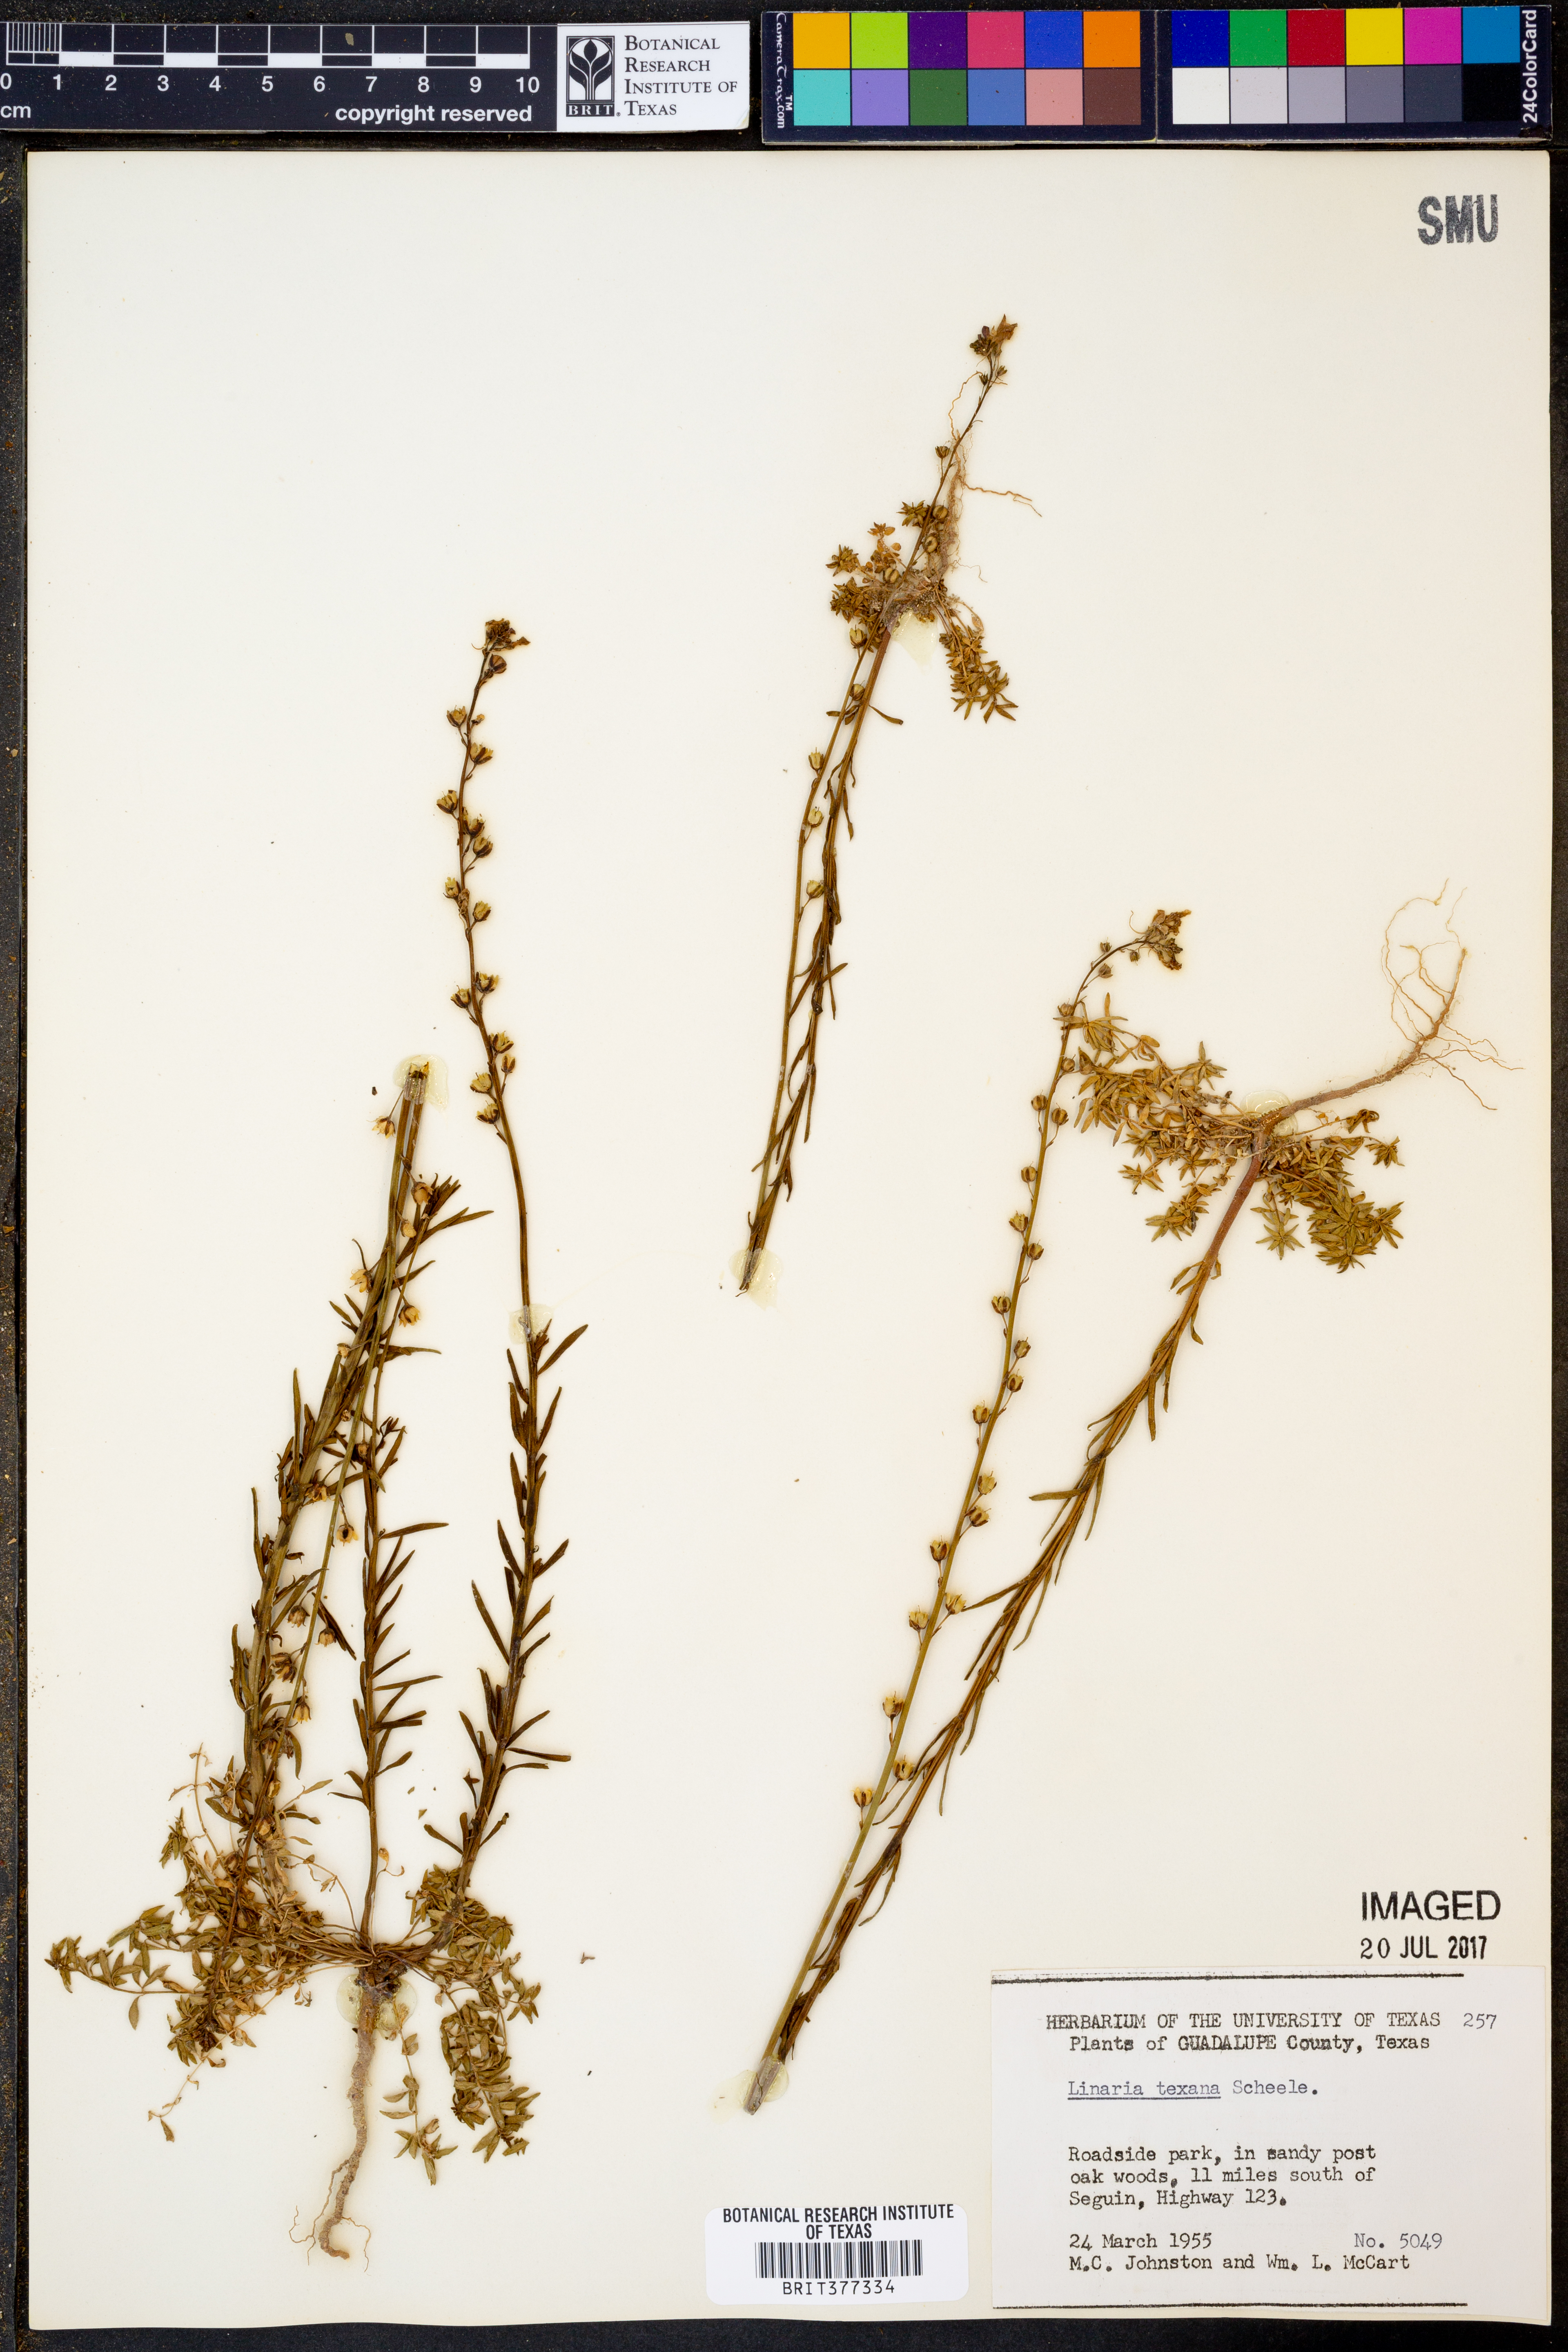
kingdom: Plantae
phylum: Tracheophyta
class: Magnoliopsida
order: Lamiales
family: Plantaginaceae
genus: Nuttallanthus
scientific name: Nuttallanthus texanus
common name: Texas toadflax
